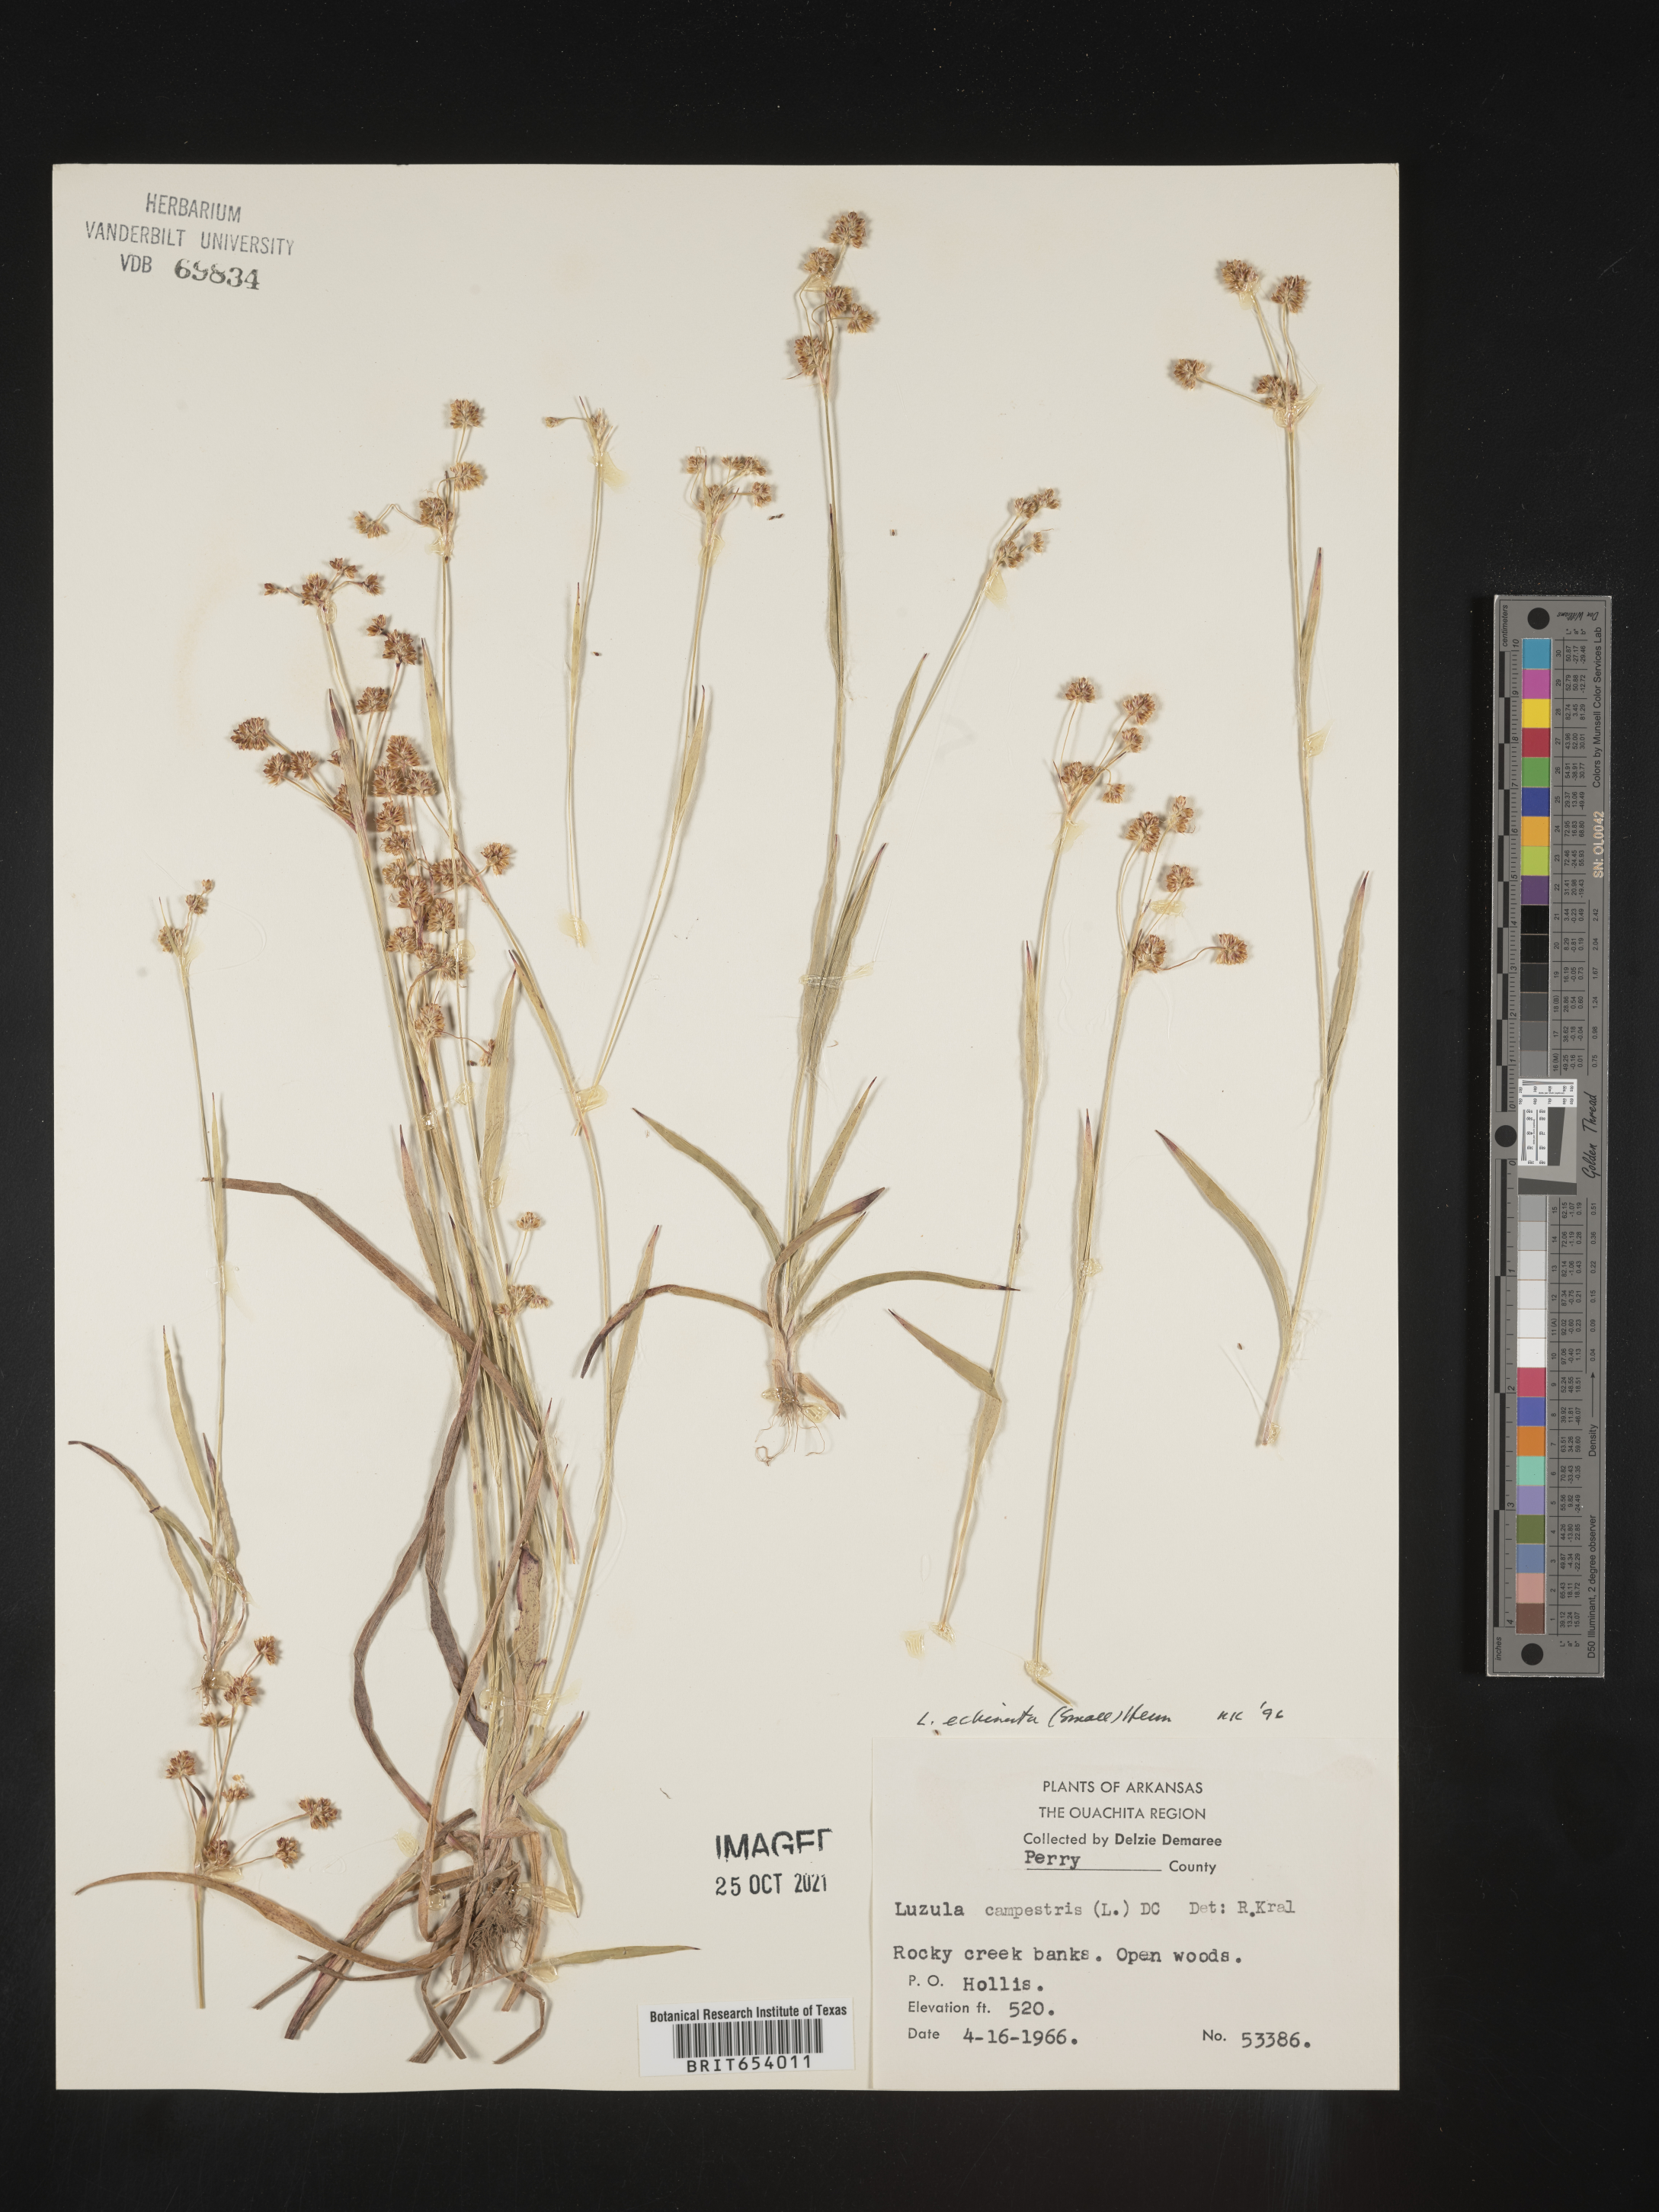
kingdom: Plantae
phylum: Tracheophyta
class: Liliopsida
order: Poales
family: Juncaceae
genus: Luzula
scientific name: Luzula echinata
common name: Hedgehog woodrush
